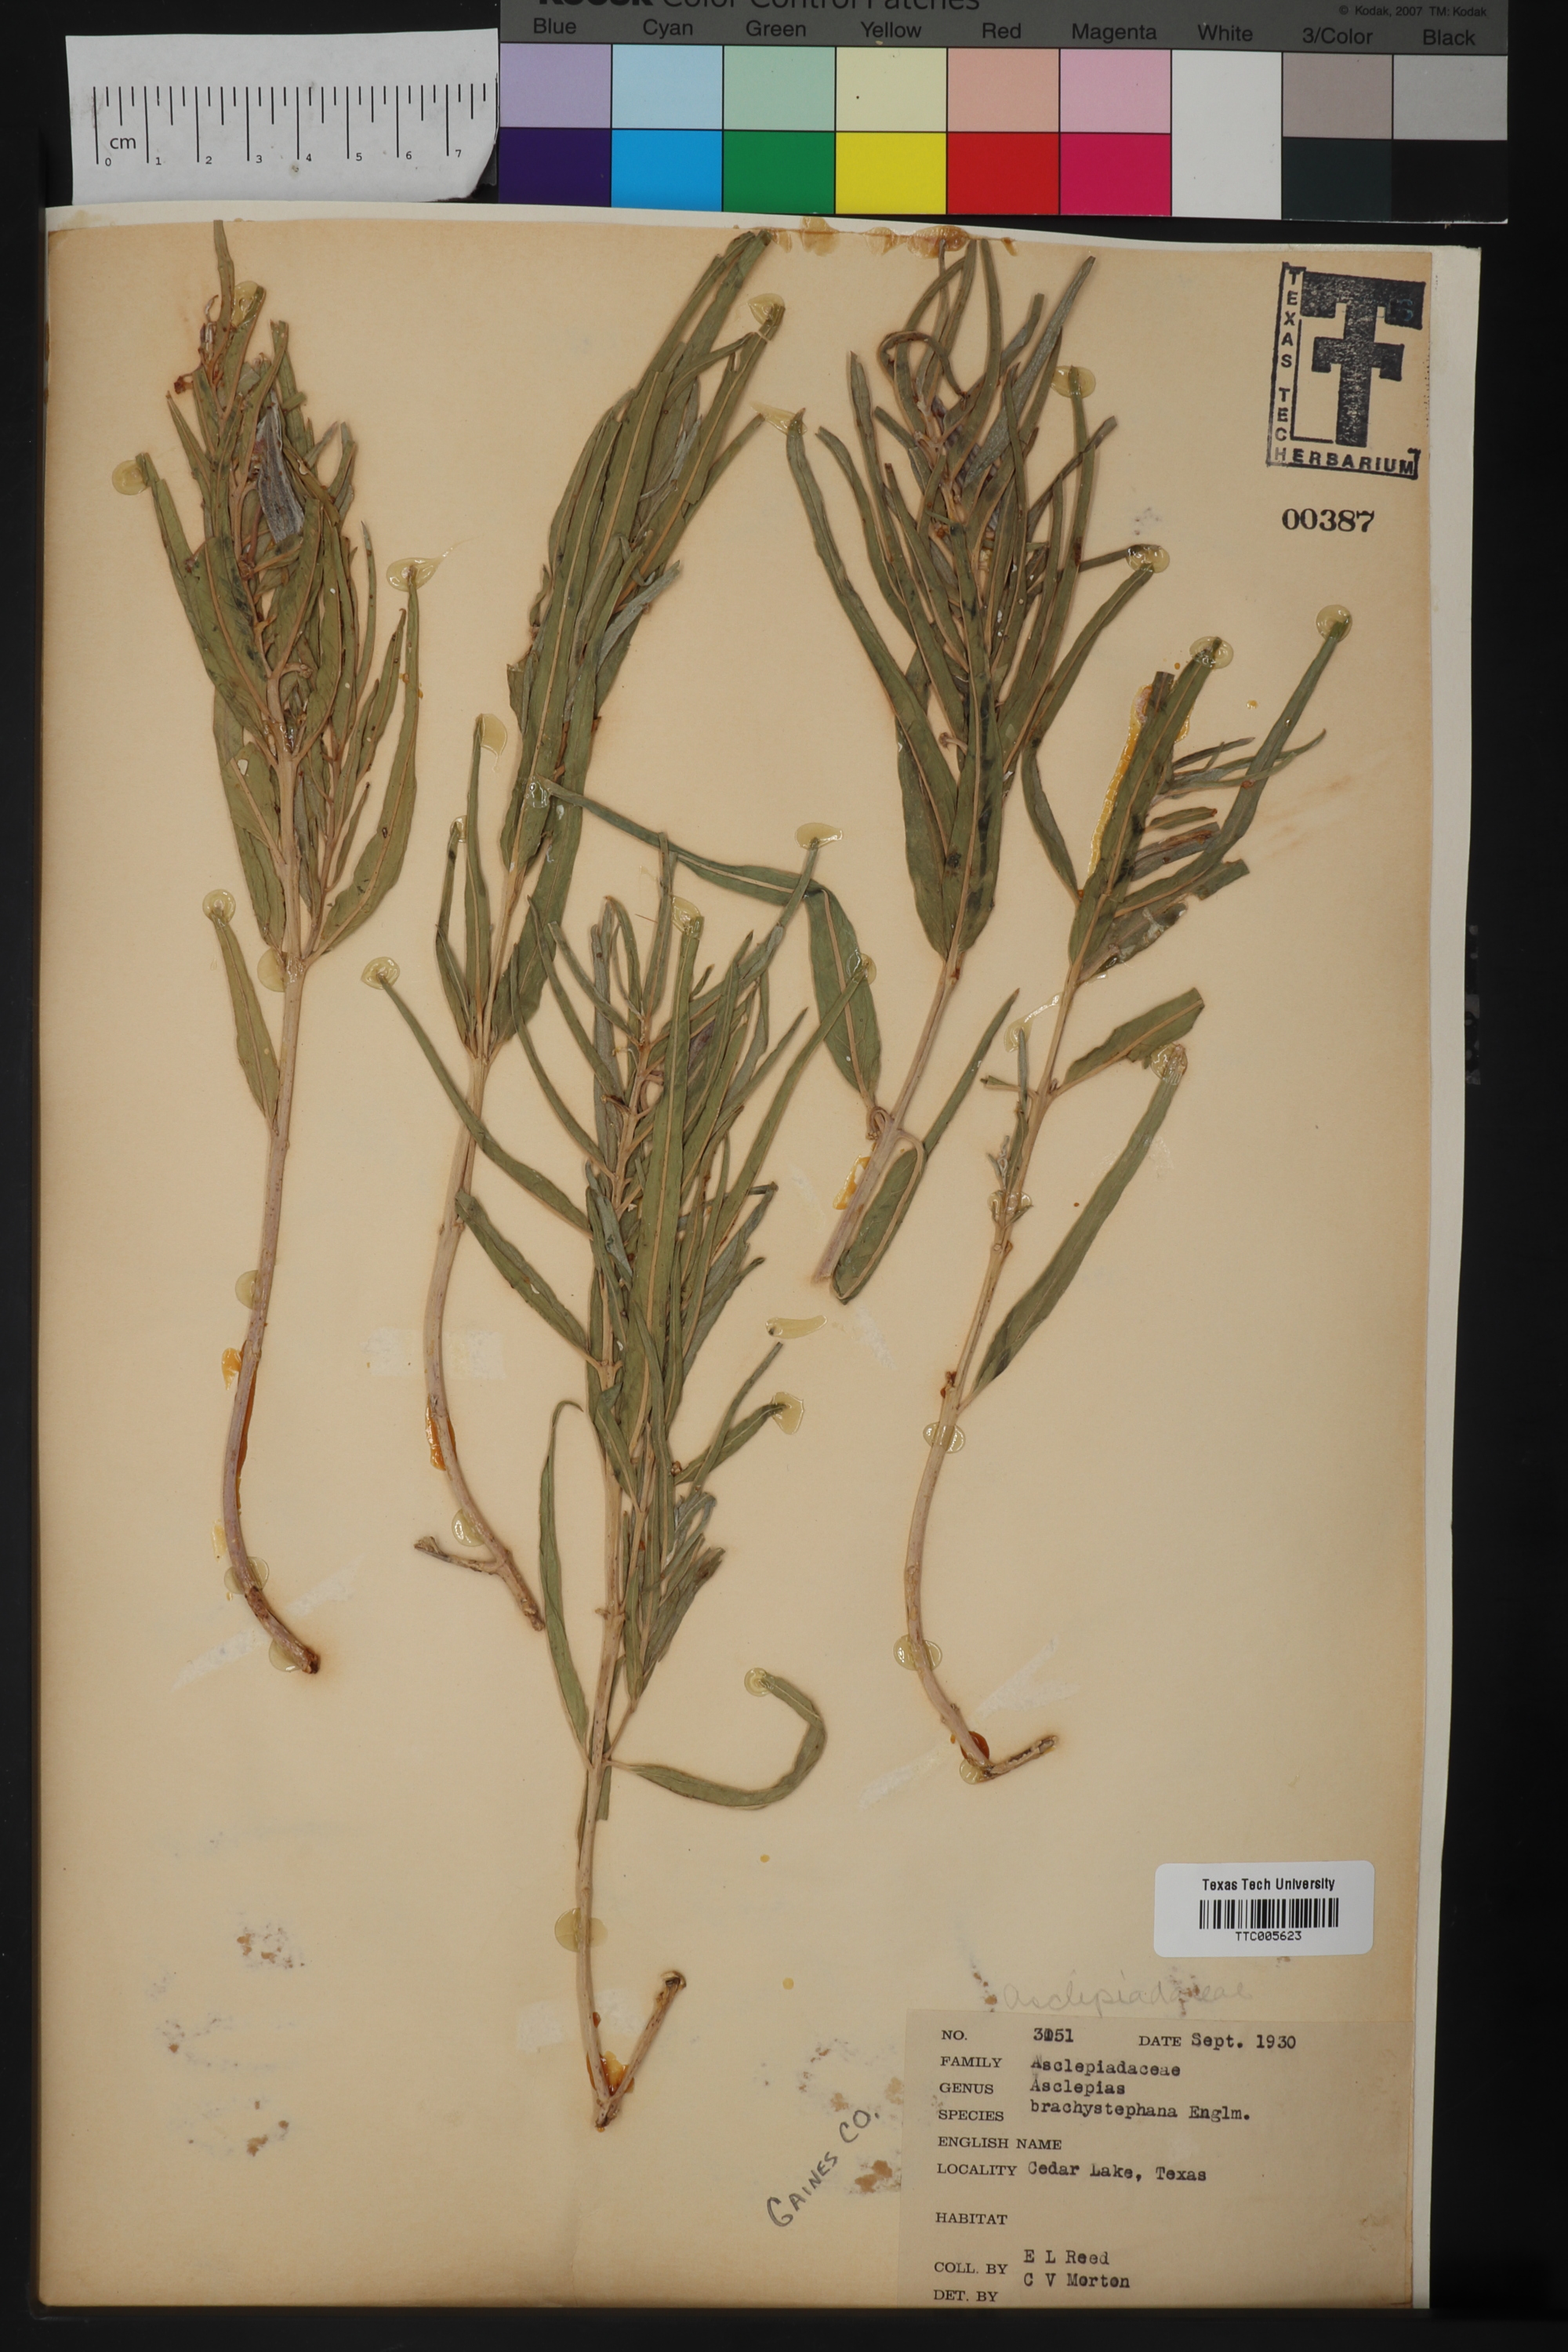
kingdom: Plantae
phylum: Tracheophyta
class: Magnoliopsida
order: Gentianales
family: Apocynaceae
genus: Asclepias
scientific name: Asclepias brachystephana
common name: Shortcrown milkweed
